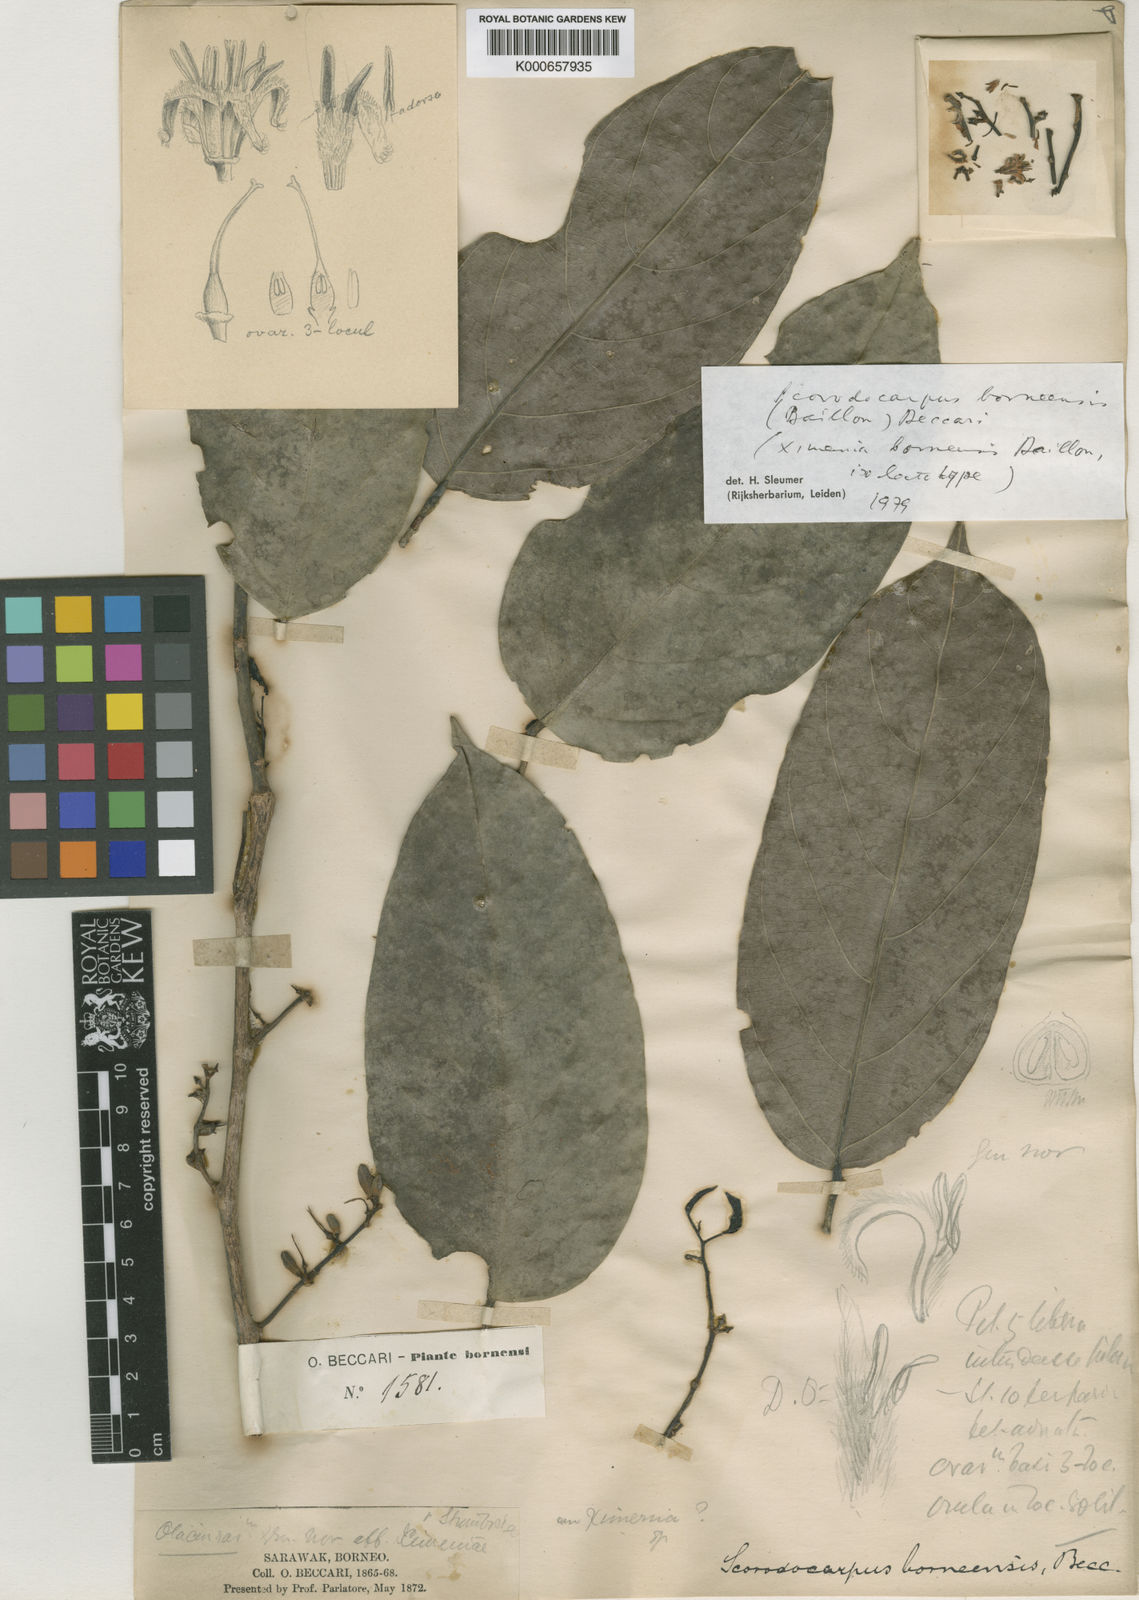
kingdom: Plantae
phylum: Tracheophyta
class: Magnoliopsida
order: Santalales
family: Strombosiaceae
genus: Scorodocarpus
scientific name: Scorodocarpus borneensis
